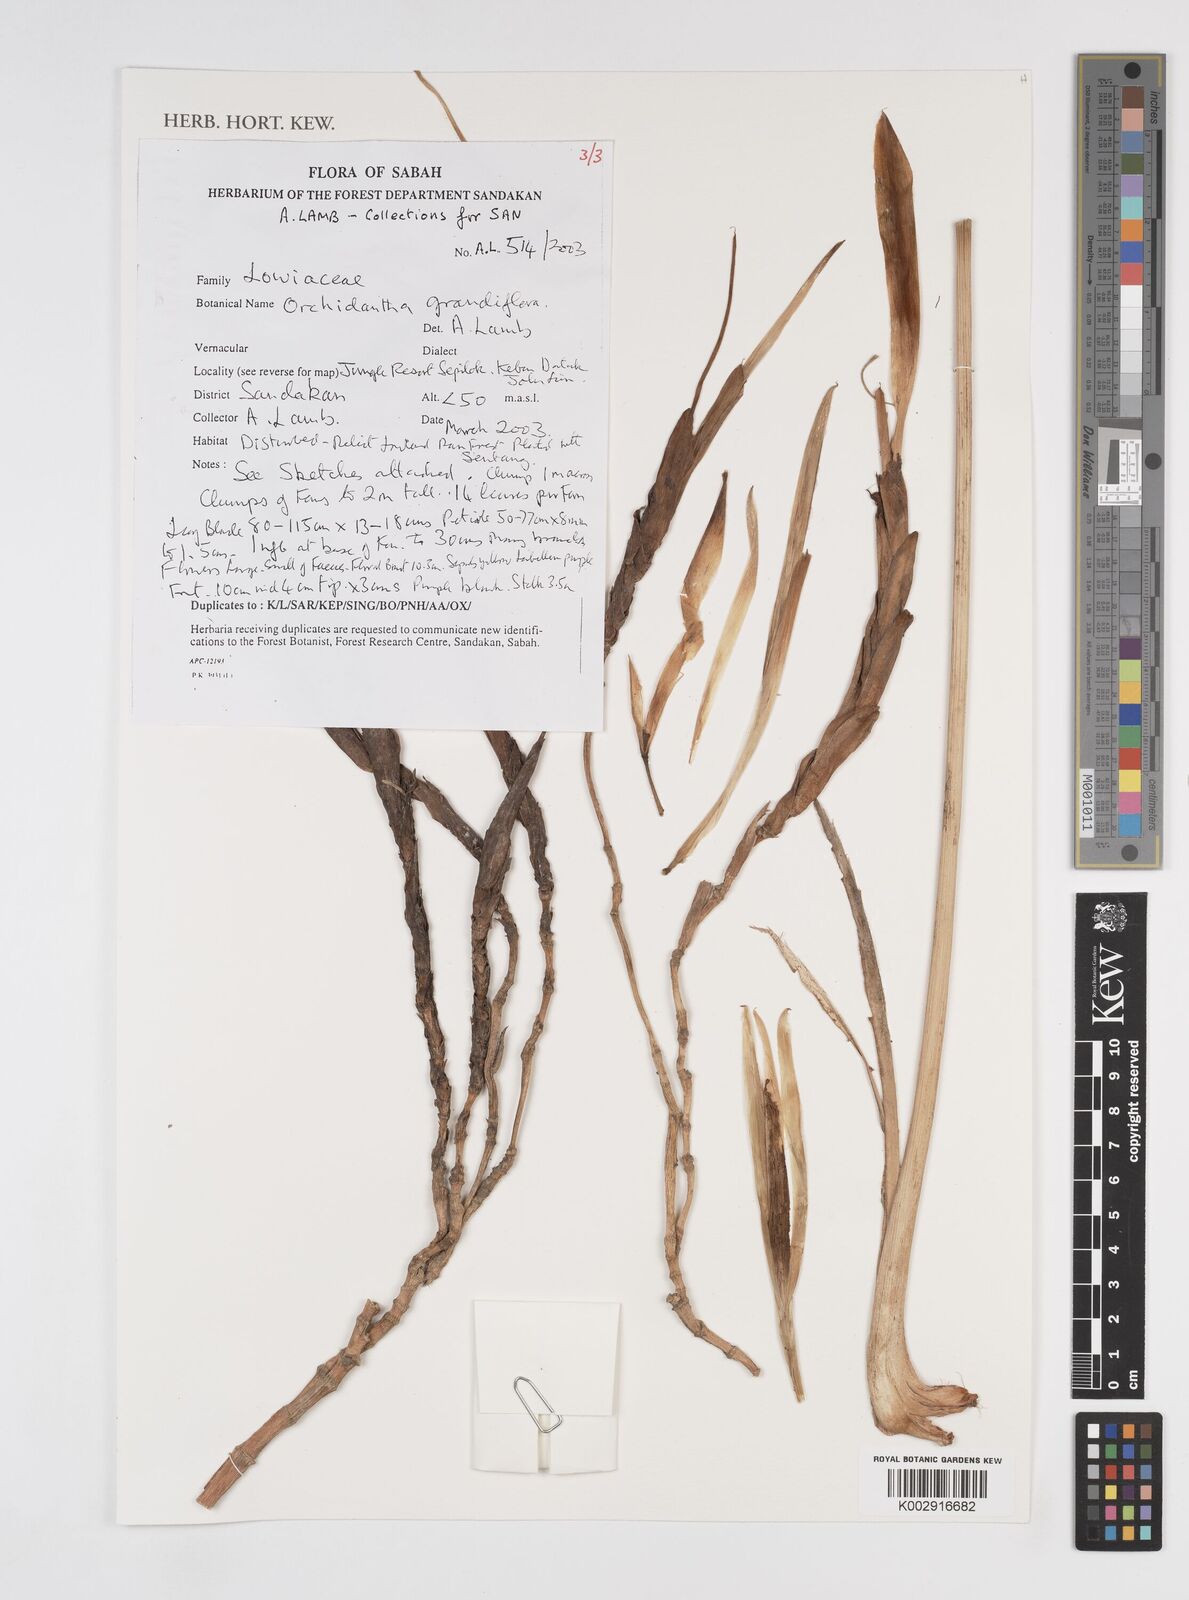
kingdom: Plantae
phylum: Tracheophyta
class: Liliopsida
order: Zingiberales
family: Lowiaceae
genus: Orchidantha
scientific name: Orchidantha grandiflora
